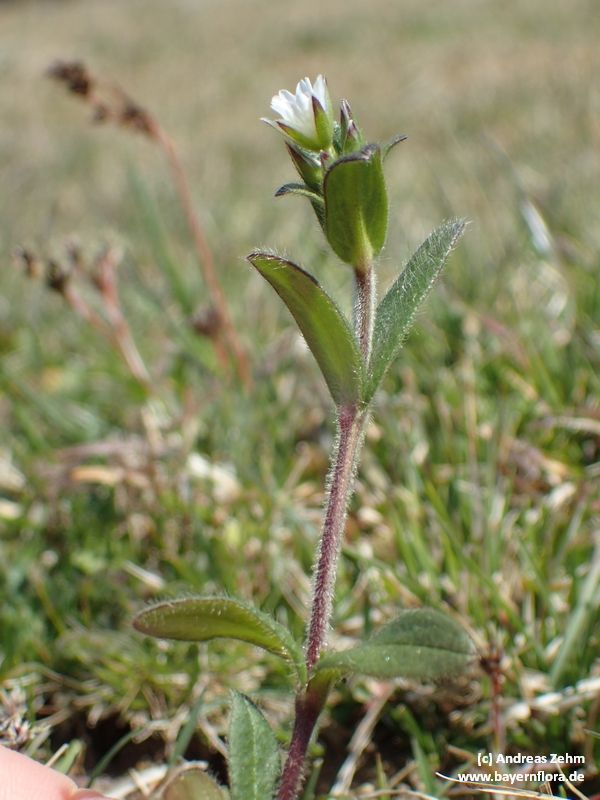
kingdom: Plantae
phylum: Tracheophyta
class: Magnoliopsida
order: Caryophyllales
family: Caryophyllaceae
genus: Cerastium
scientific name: Cerastium holosteoides
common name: Big chickweed
